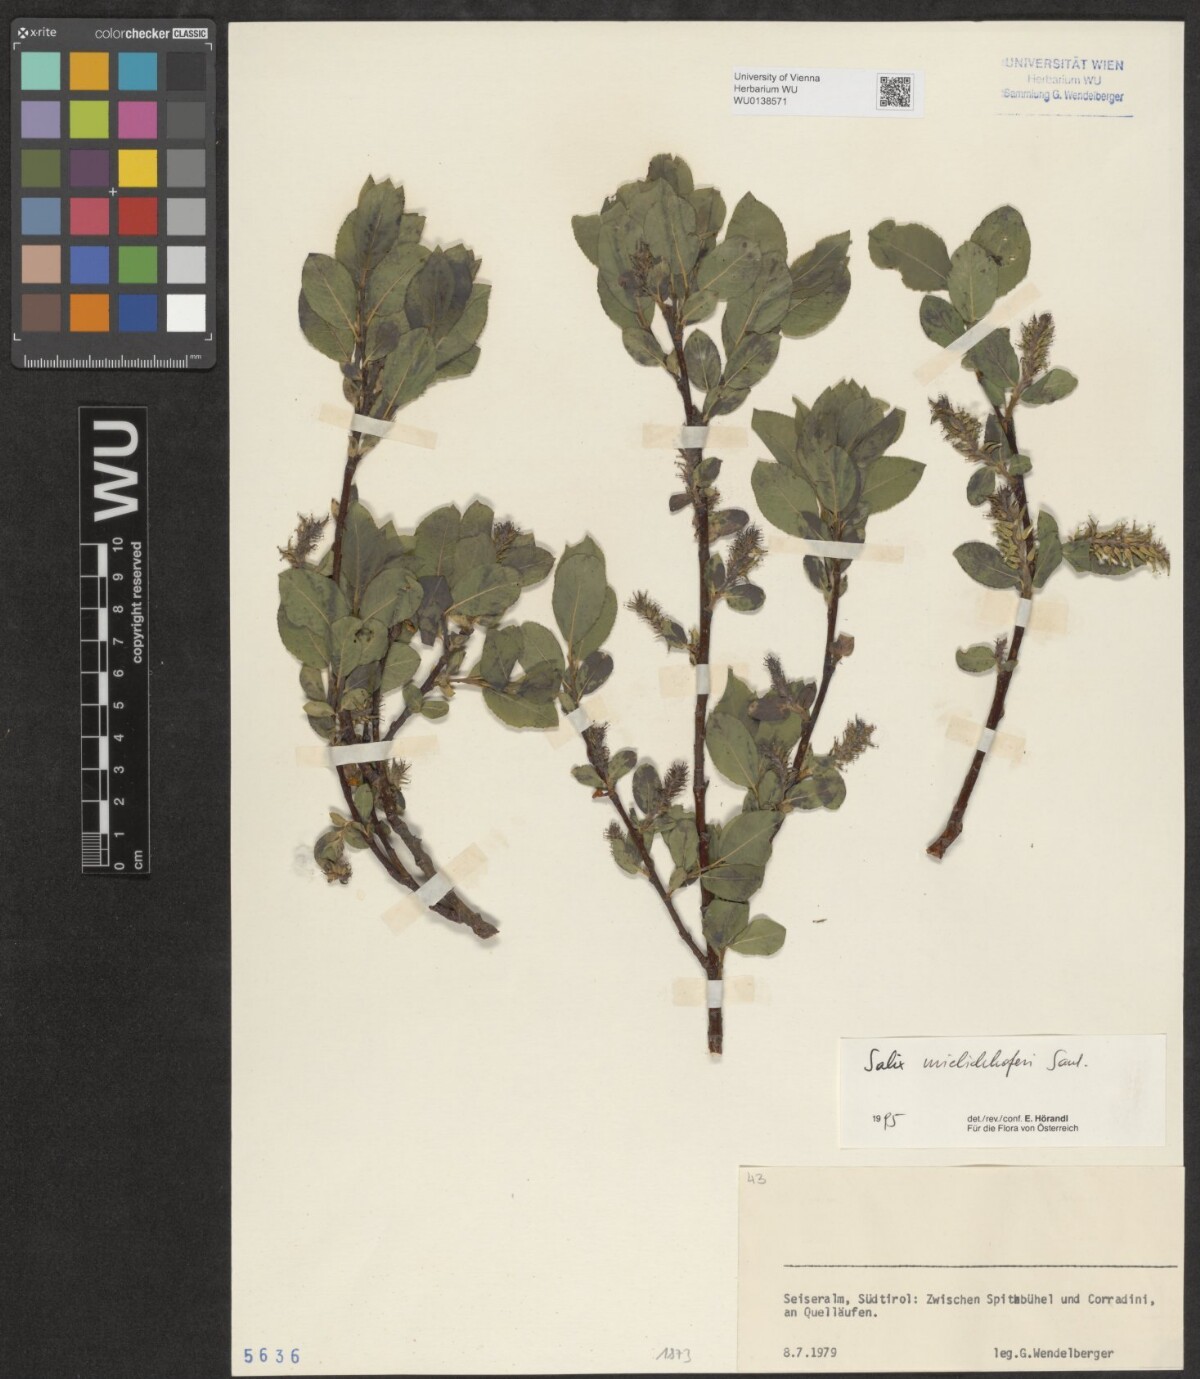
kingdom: Plantae
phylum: Tracheophyta
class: Magnoliopsida
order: Malpighiales
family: Salicaceae
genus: Salix
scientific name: Salix mielichhoferi
